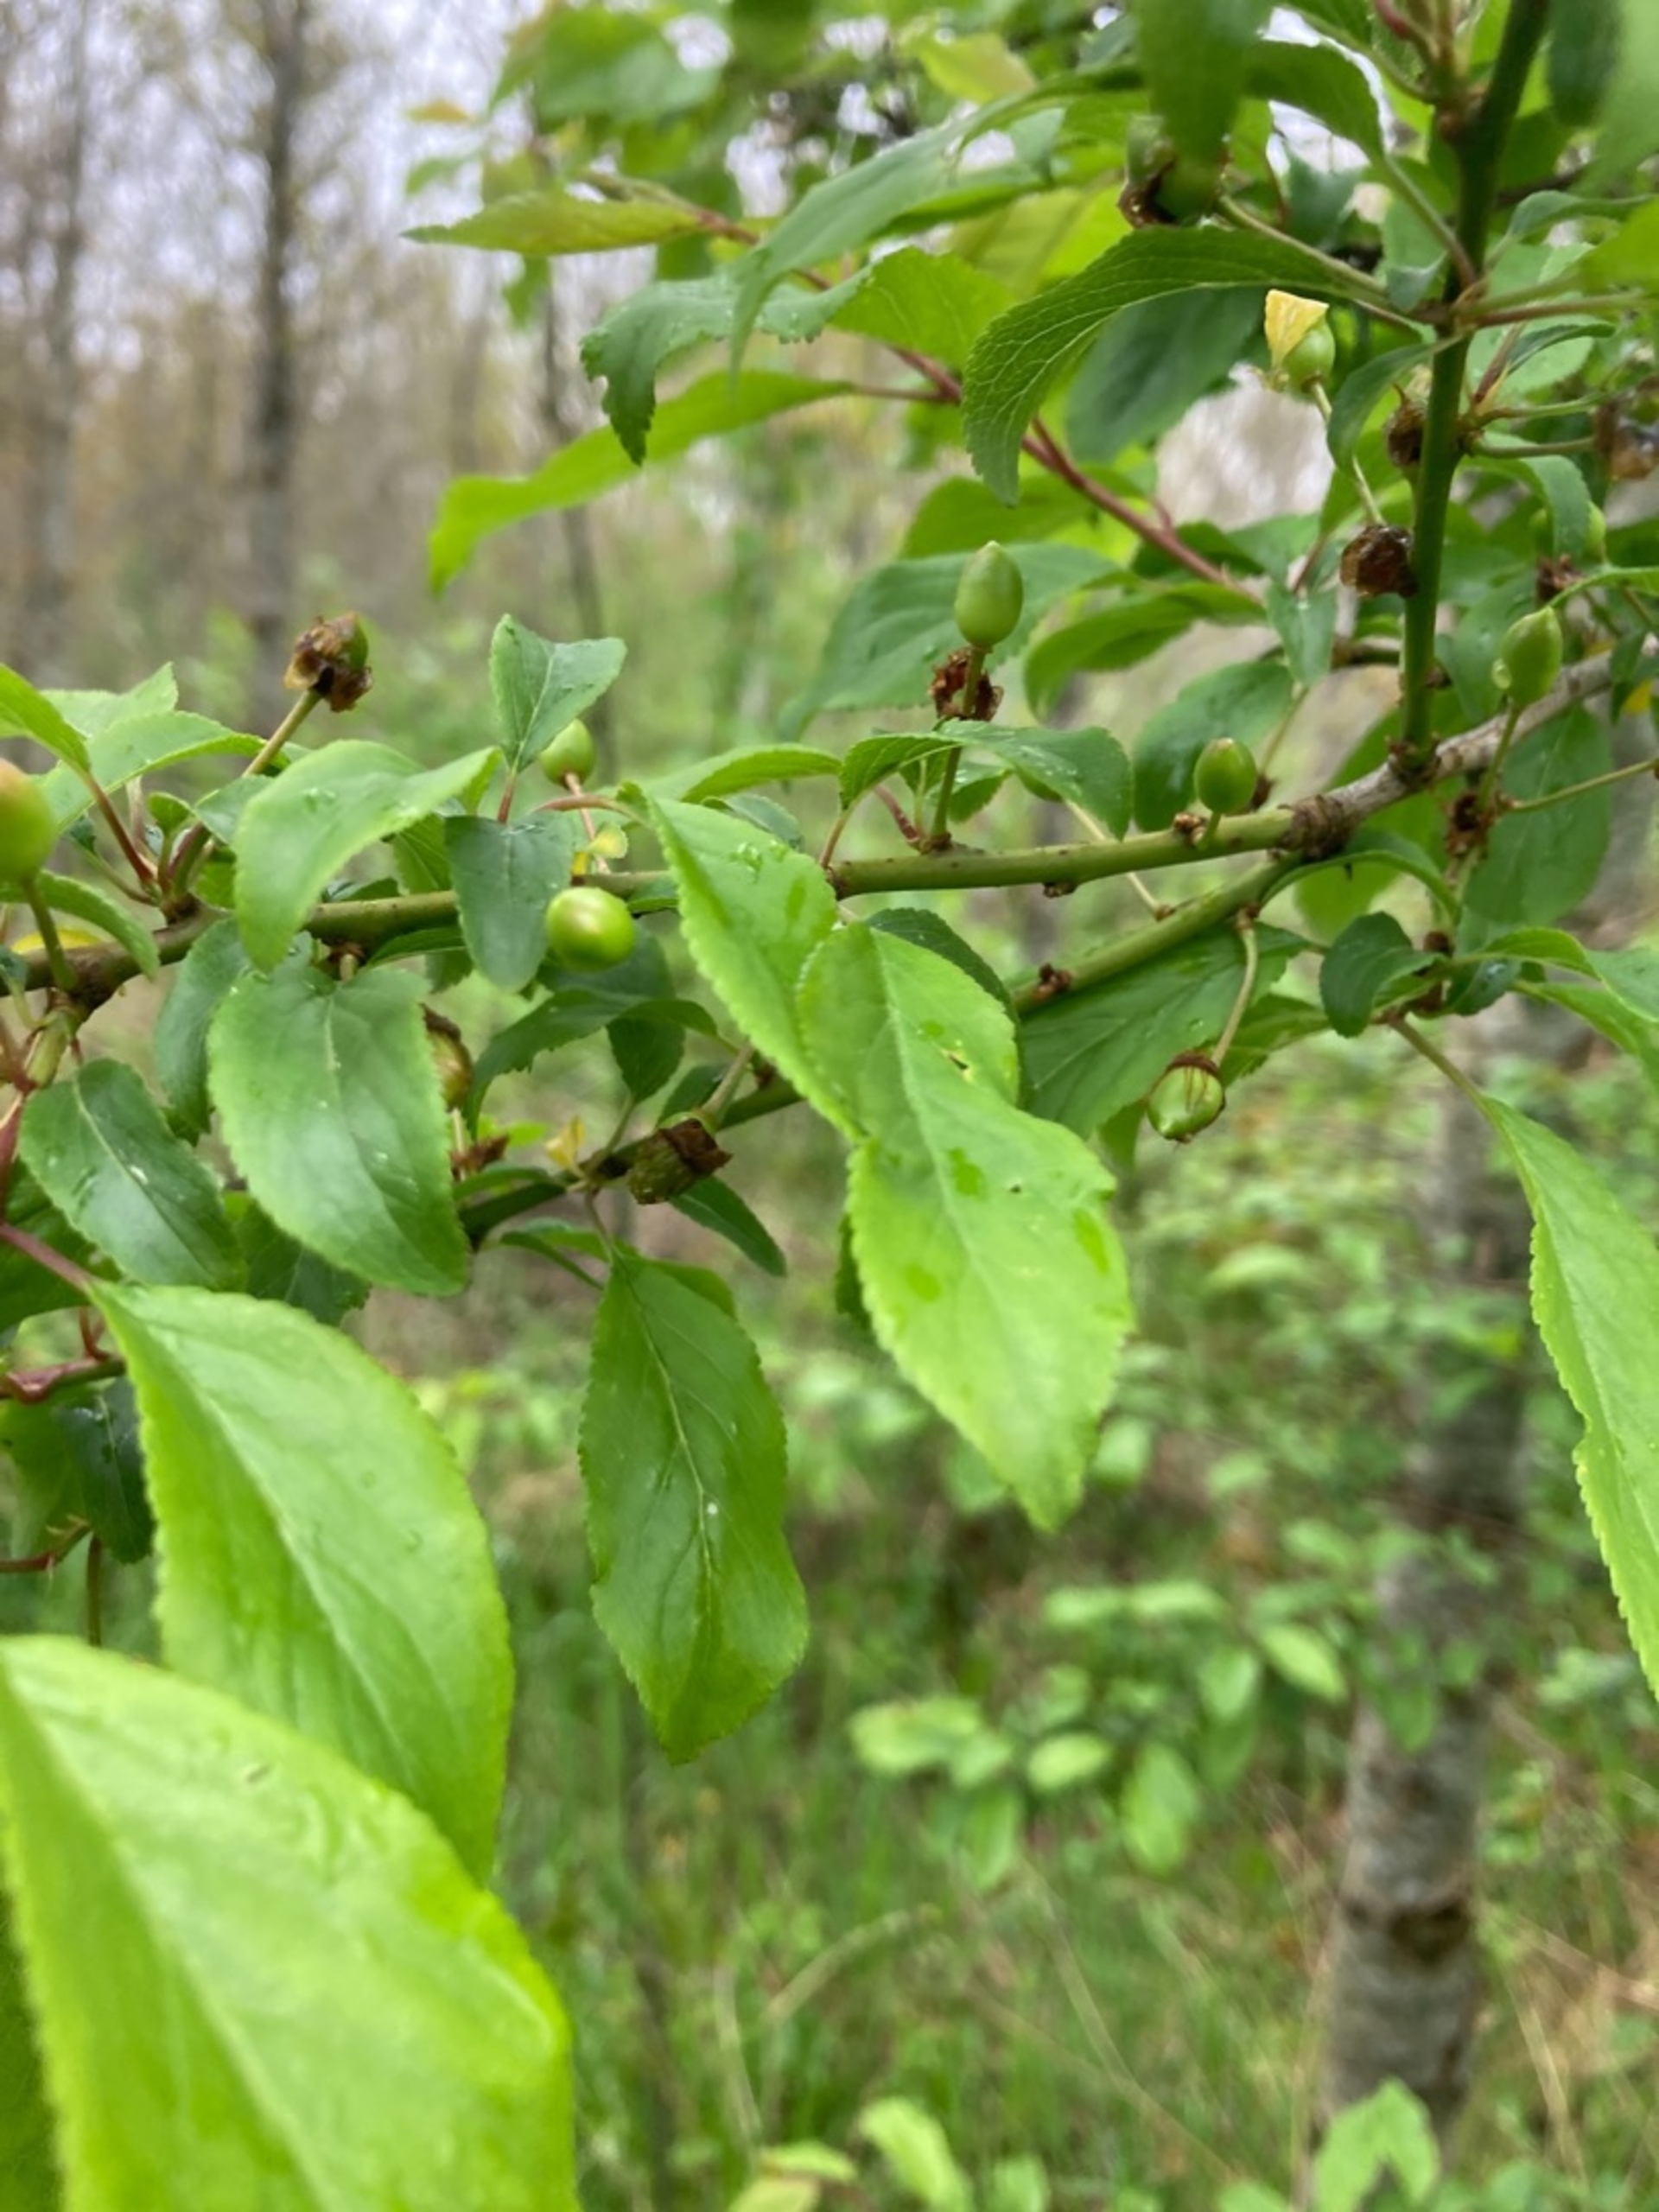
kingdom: Plantae
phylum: Tracheophyta
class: Magnoliopsida
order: Rosales
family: Rosaceae
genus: Prunus
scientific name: Prunus cerasifera
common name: Mirabel
